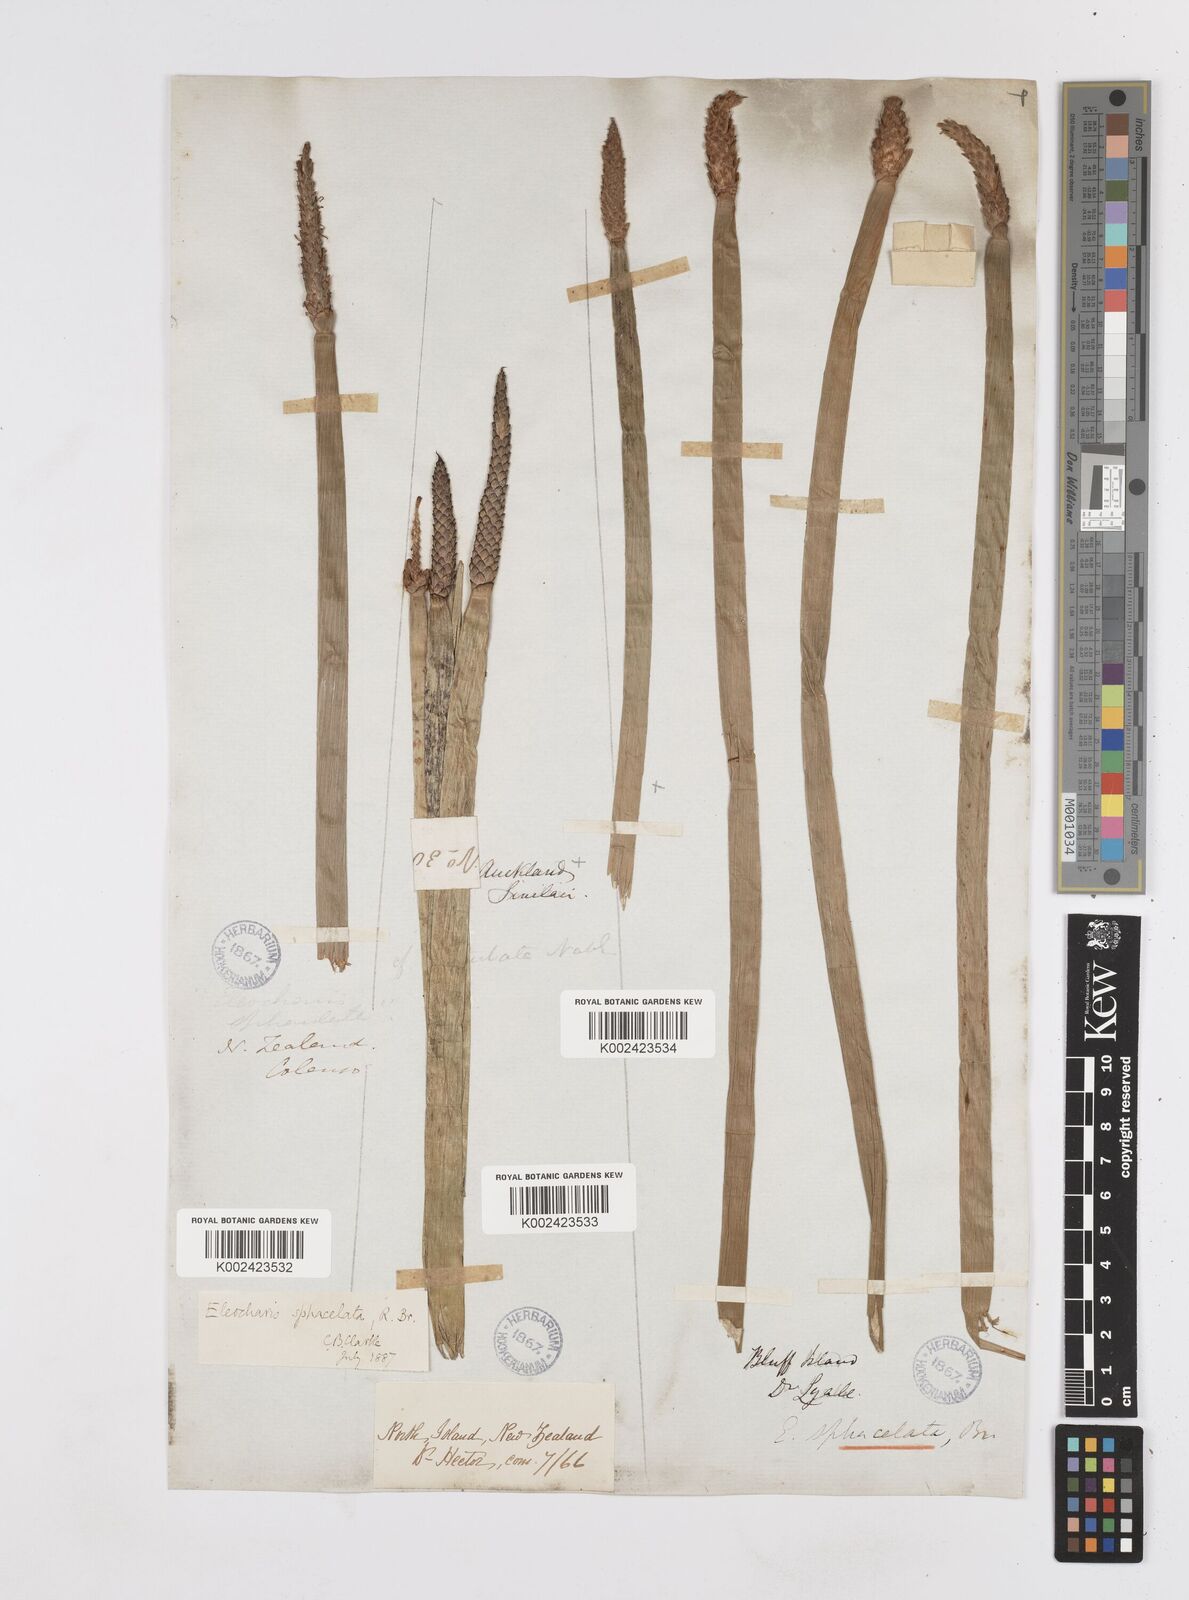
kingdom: Plantae
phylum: Tracheophyta
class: Liliopsida
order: Poales
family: Cyperaceae
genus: Eleocharis
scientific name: Eleocharis sphacelata
